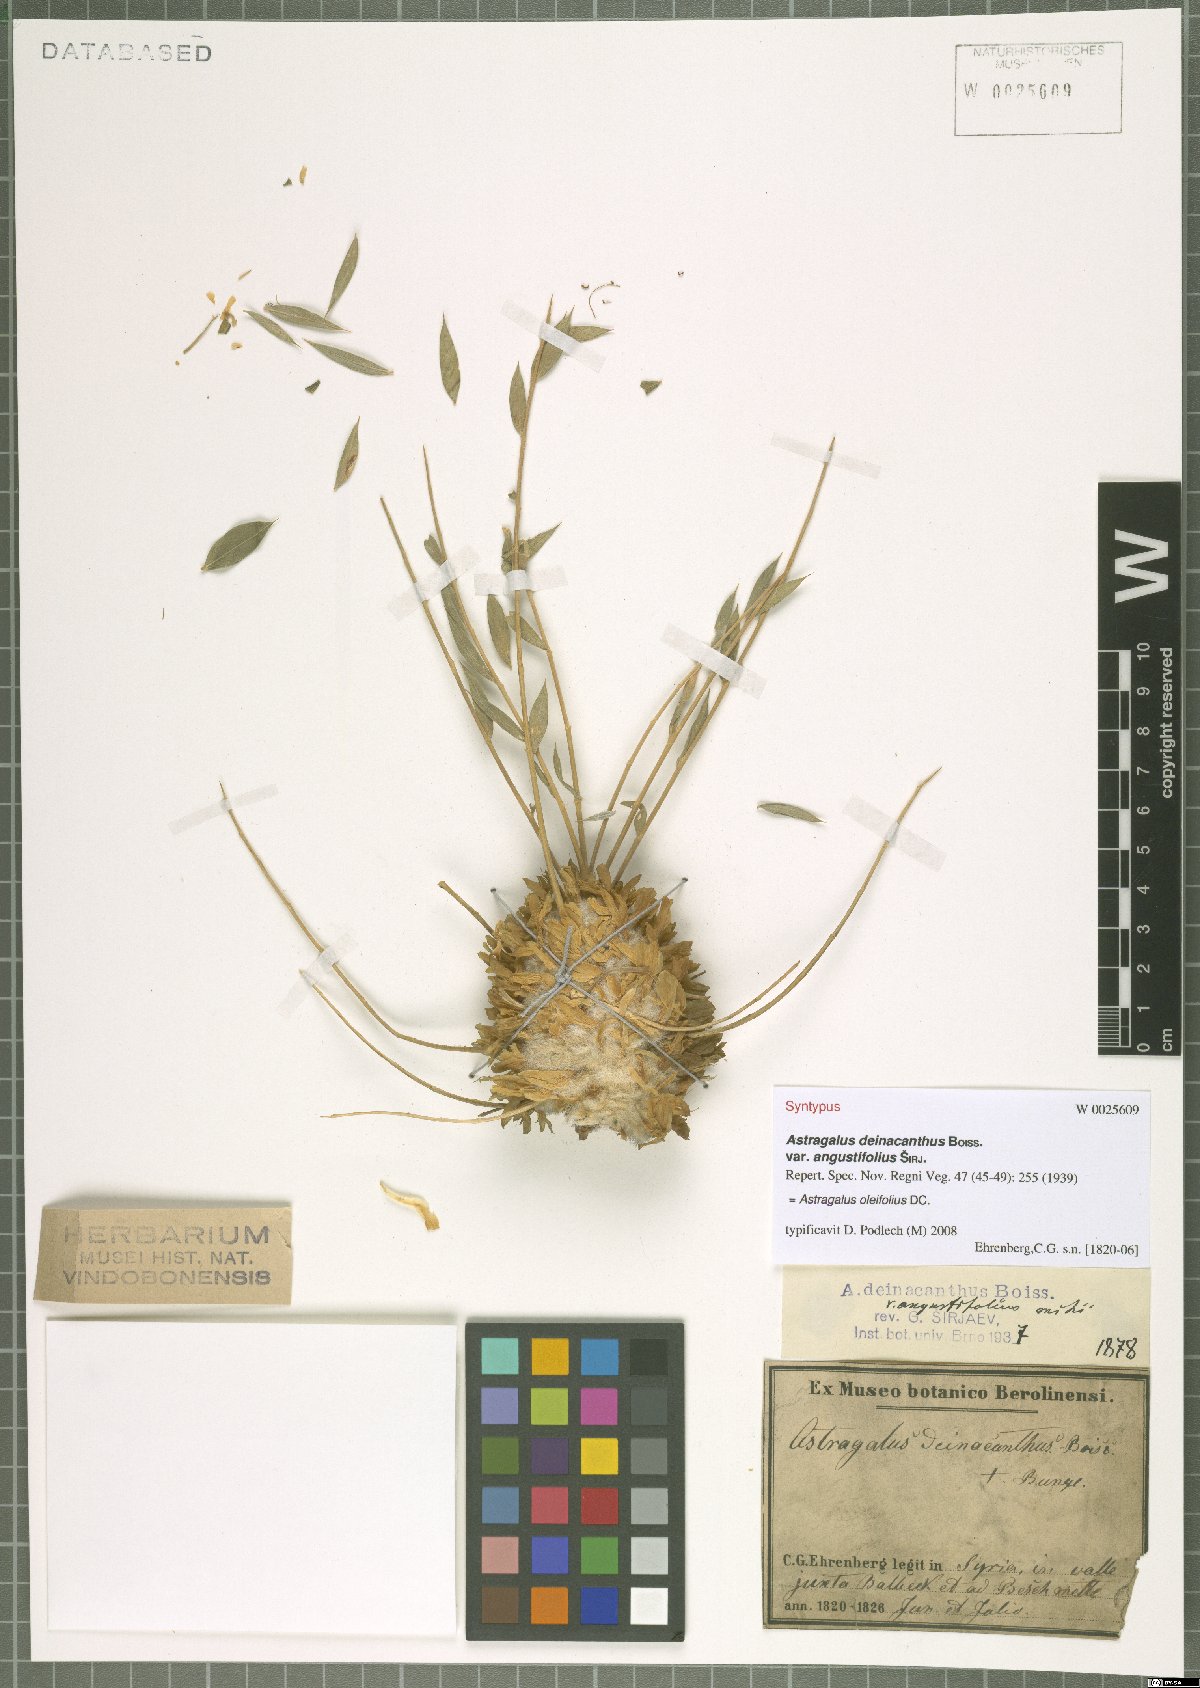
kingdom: Plantae
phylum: Tracheophyta
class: Magnoliopsida
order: Fabales
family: Fabaceae
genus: Astragalus
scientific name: Astragalus oleifolius
